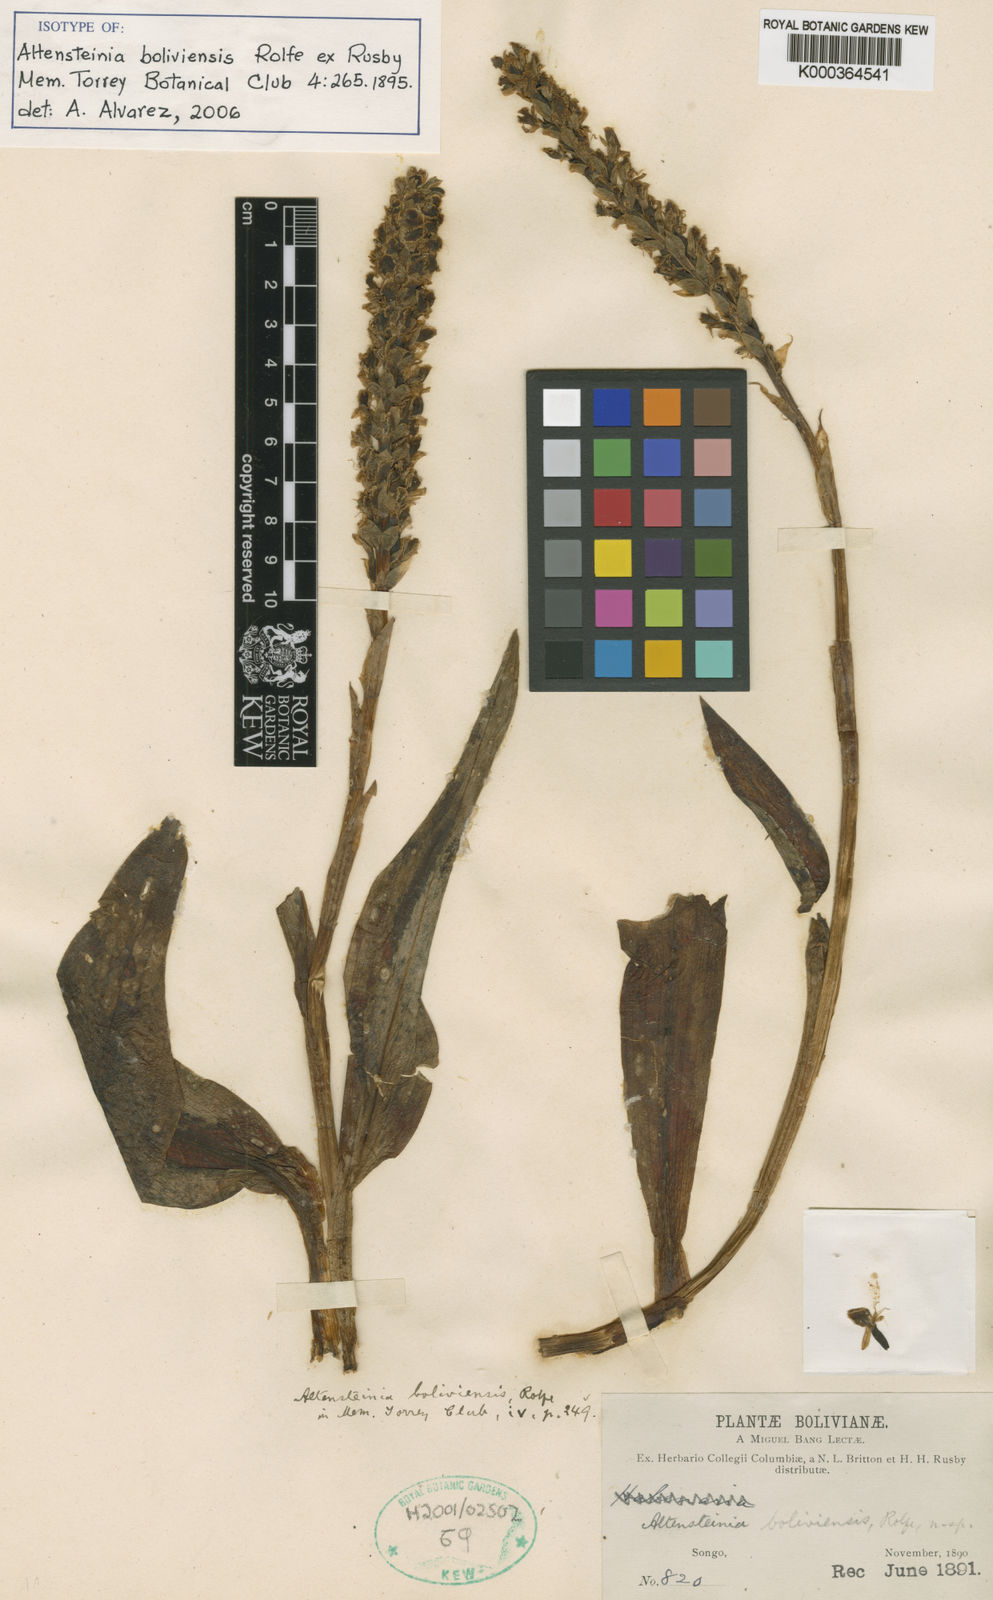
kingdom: Plantae
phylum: Tracheophyta
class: Liliopsida
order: Asparagales
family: Orchidaceae
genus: Altensteinia
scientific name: Altensteinia boliviensis
